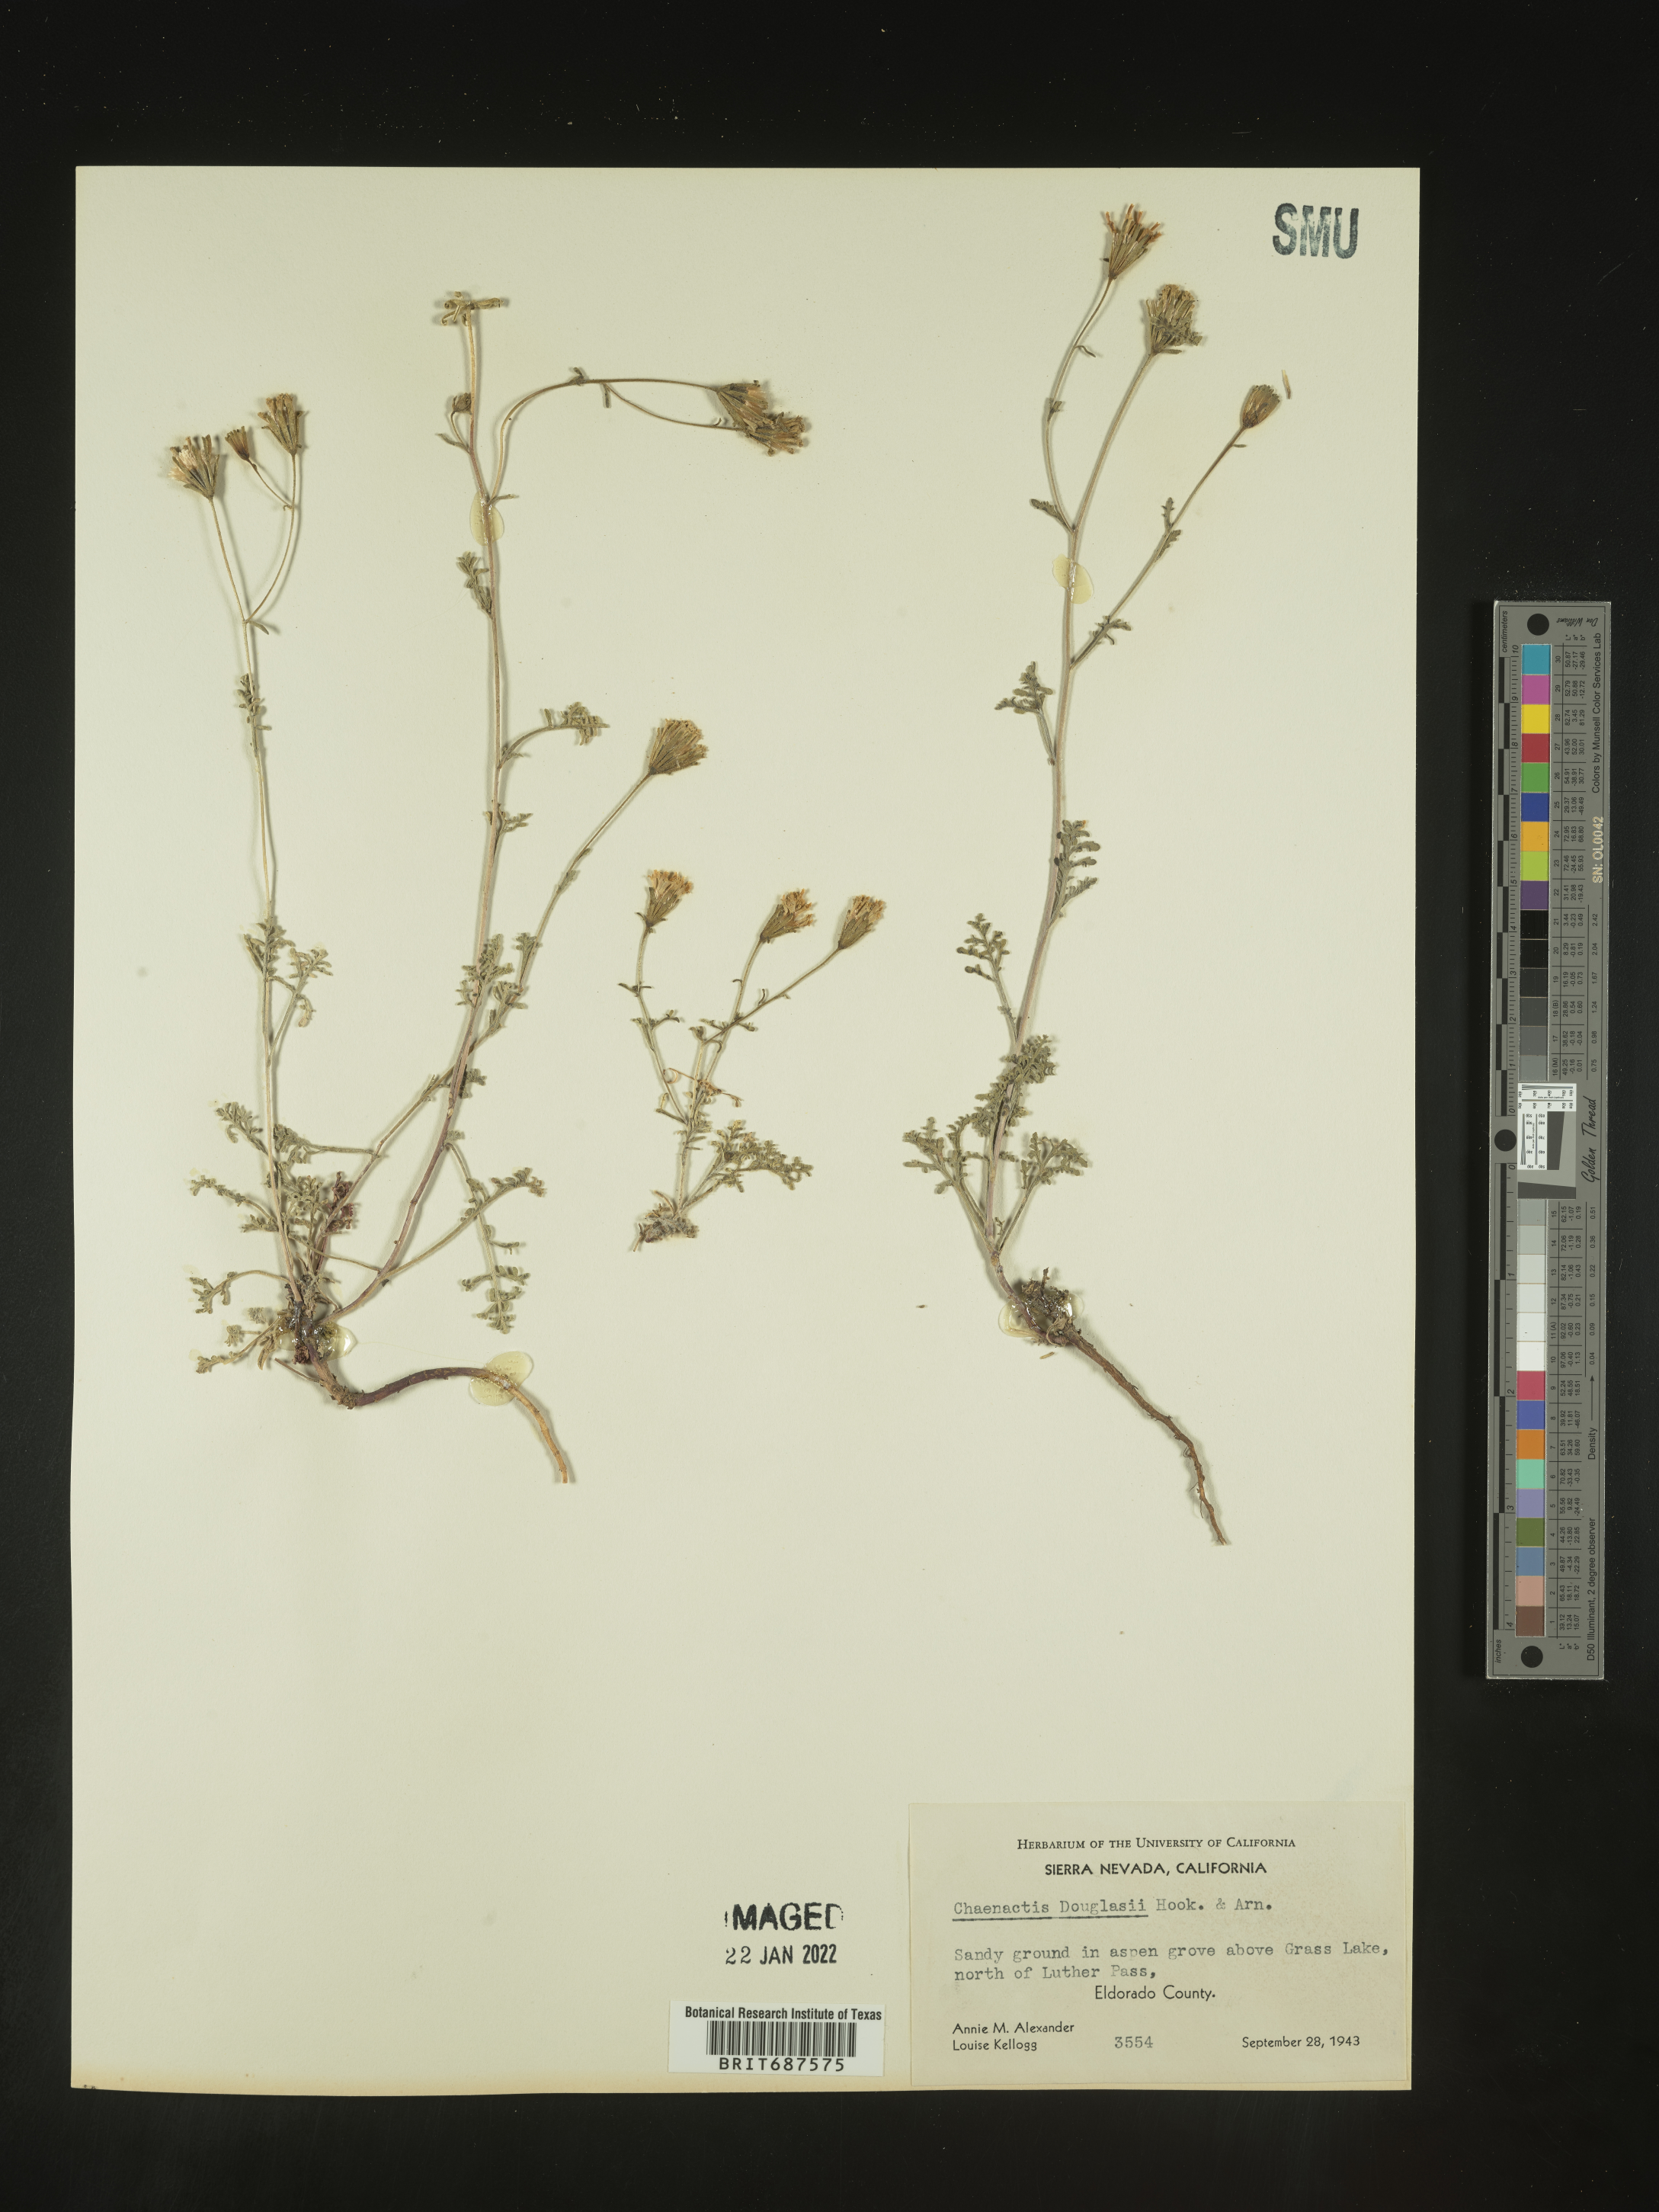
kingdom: Plantae
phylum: Tracheophyta
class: Magnoliopsida
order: Asterales
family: Asteraceae
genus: Chaenactis
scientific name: Chaenactis douglasii
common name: Hoary pincushion
